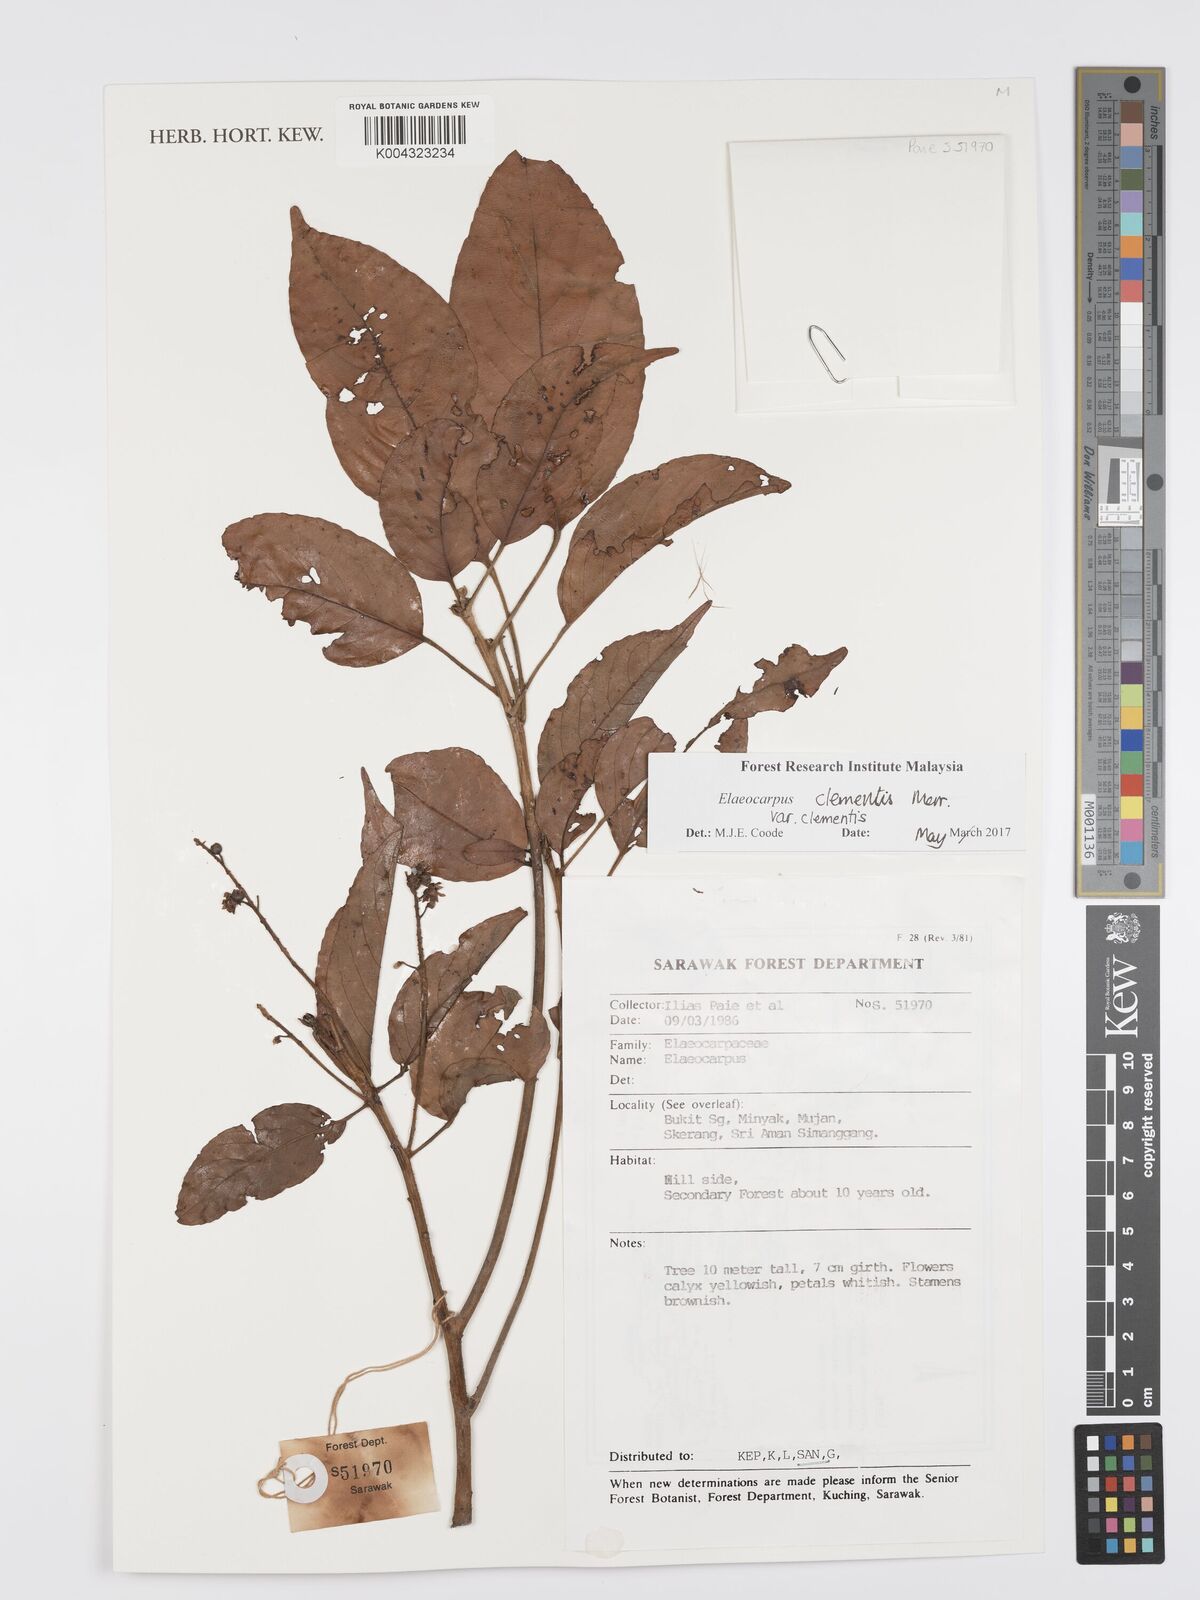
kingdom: Plantae
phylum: Tracheophyta
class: Magnoliopsida
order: Oxalidales
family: Elaeocarpaceae
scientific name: Elaeocarpaceae
